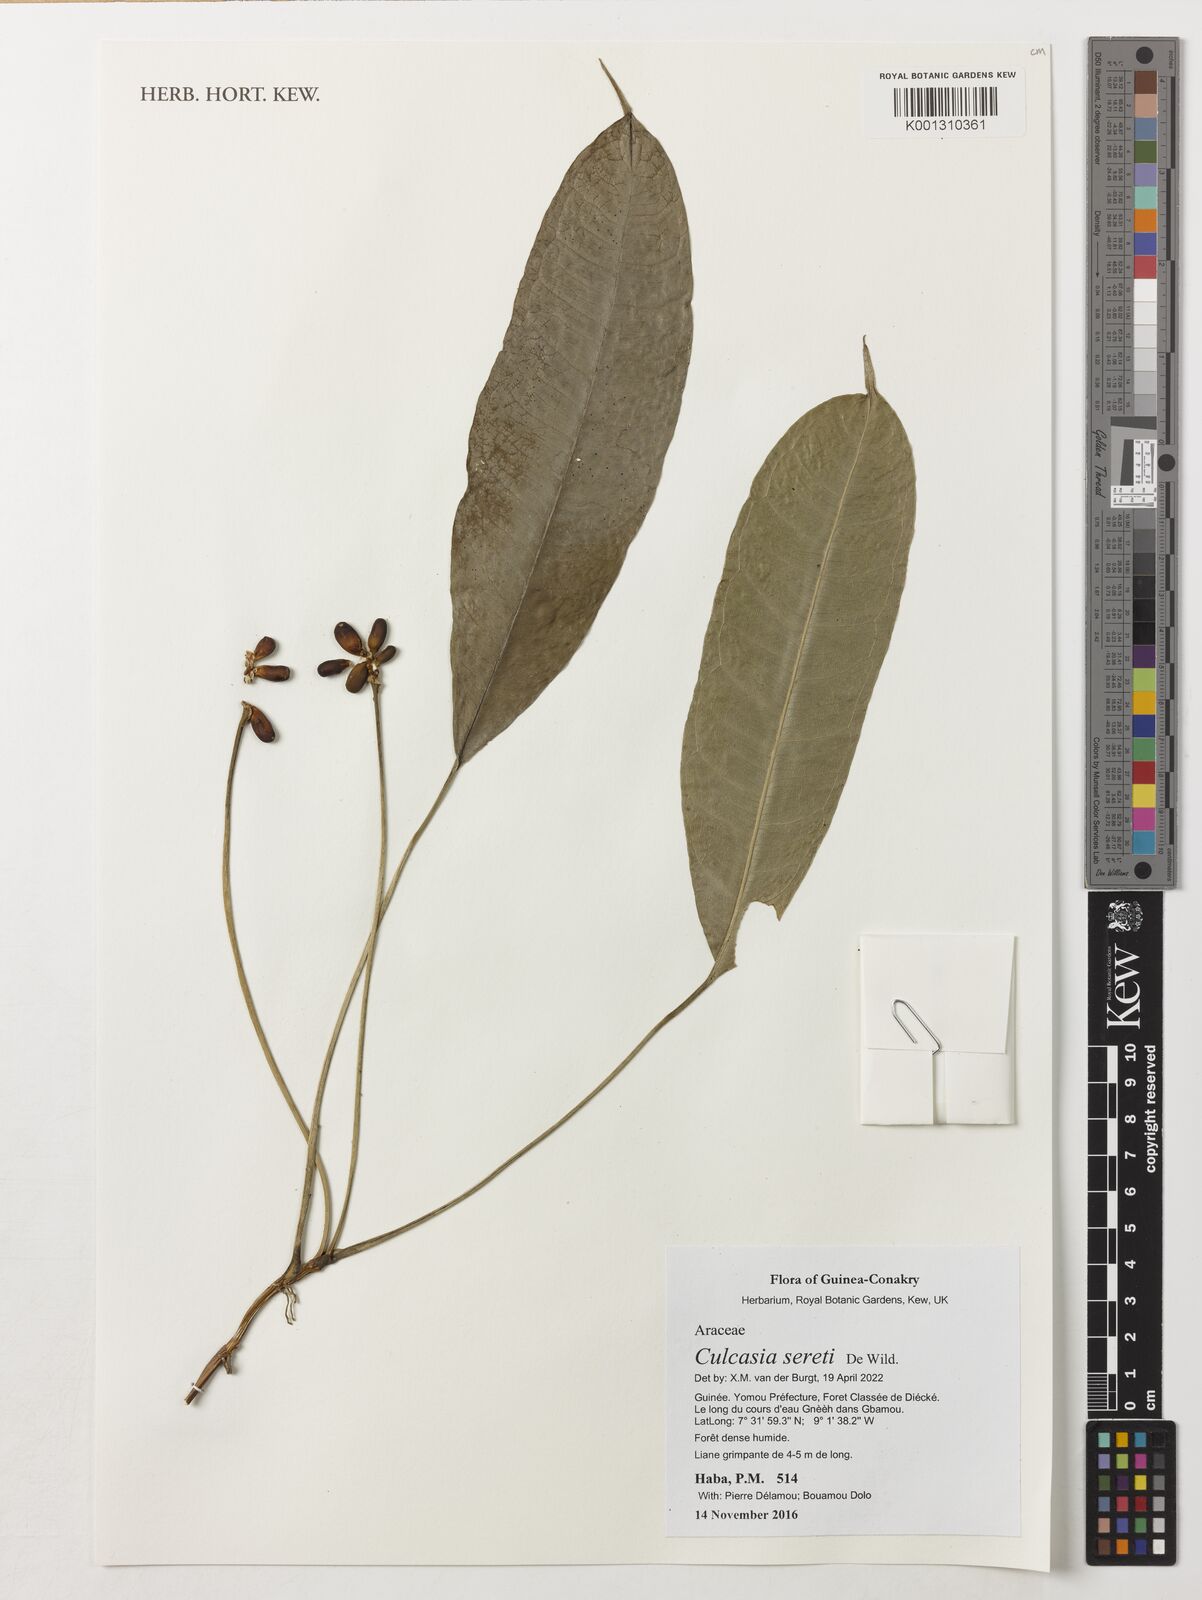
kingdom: Plantae
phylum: Tracheophyta
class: Liliopsida
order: Alismatales
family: Araceae
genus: Culcasia
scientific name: Culcasia seretii
